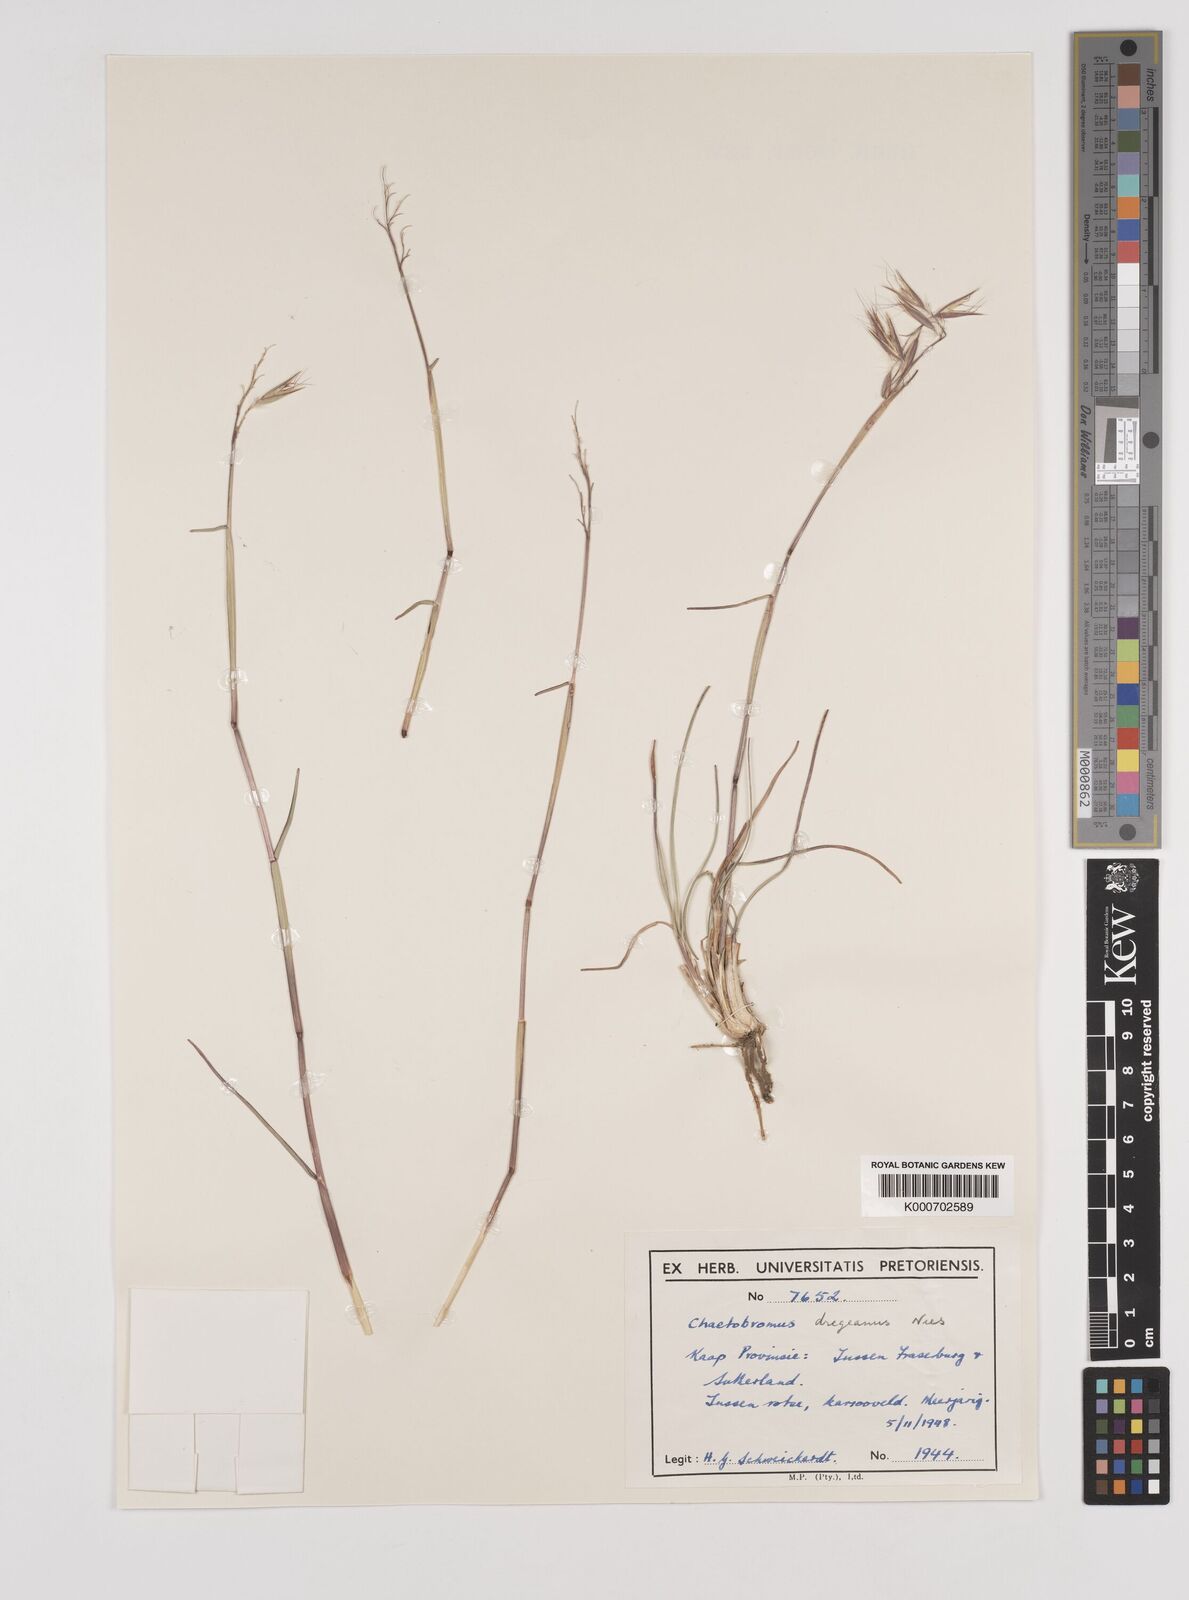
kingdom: Plantae
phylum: Tracheophyta
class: Liliopsida
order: Poales
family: Poaceae
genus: Chaetobromus
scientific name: Chaetobromus involucratus
